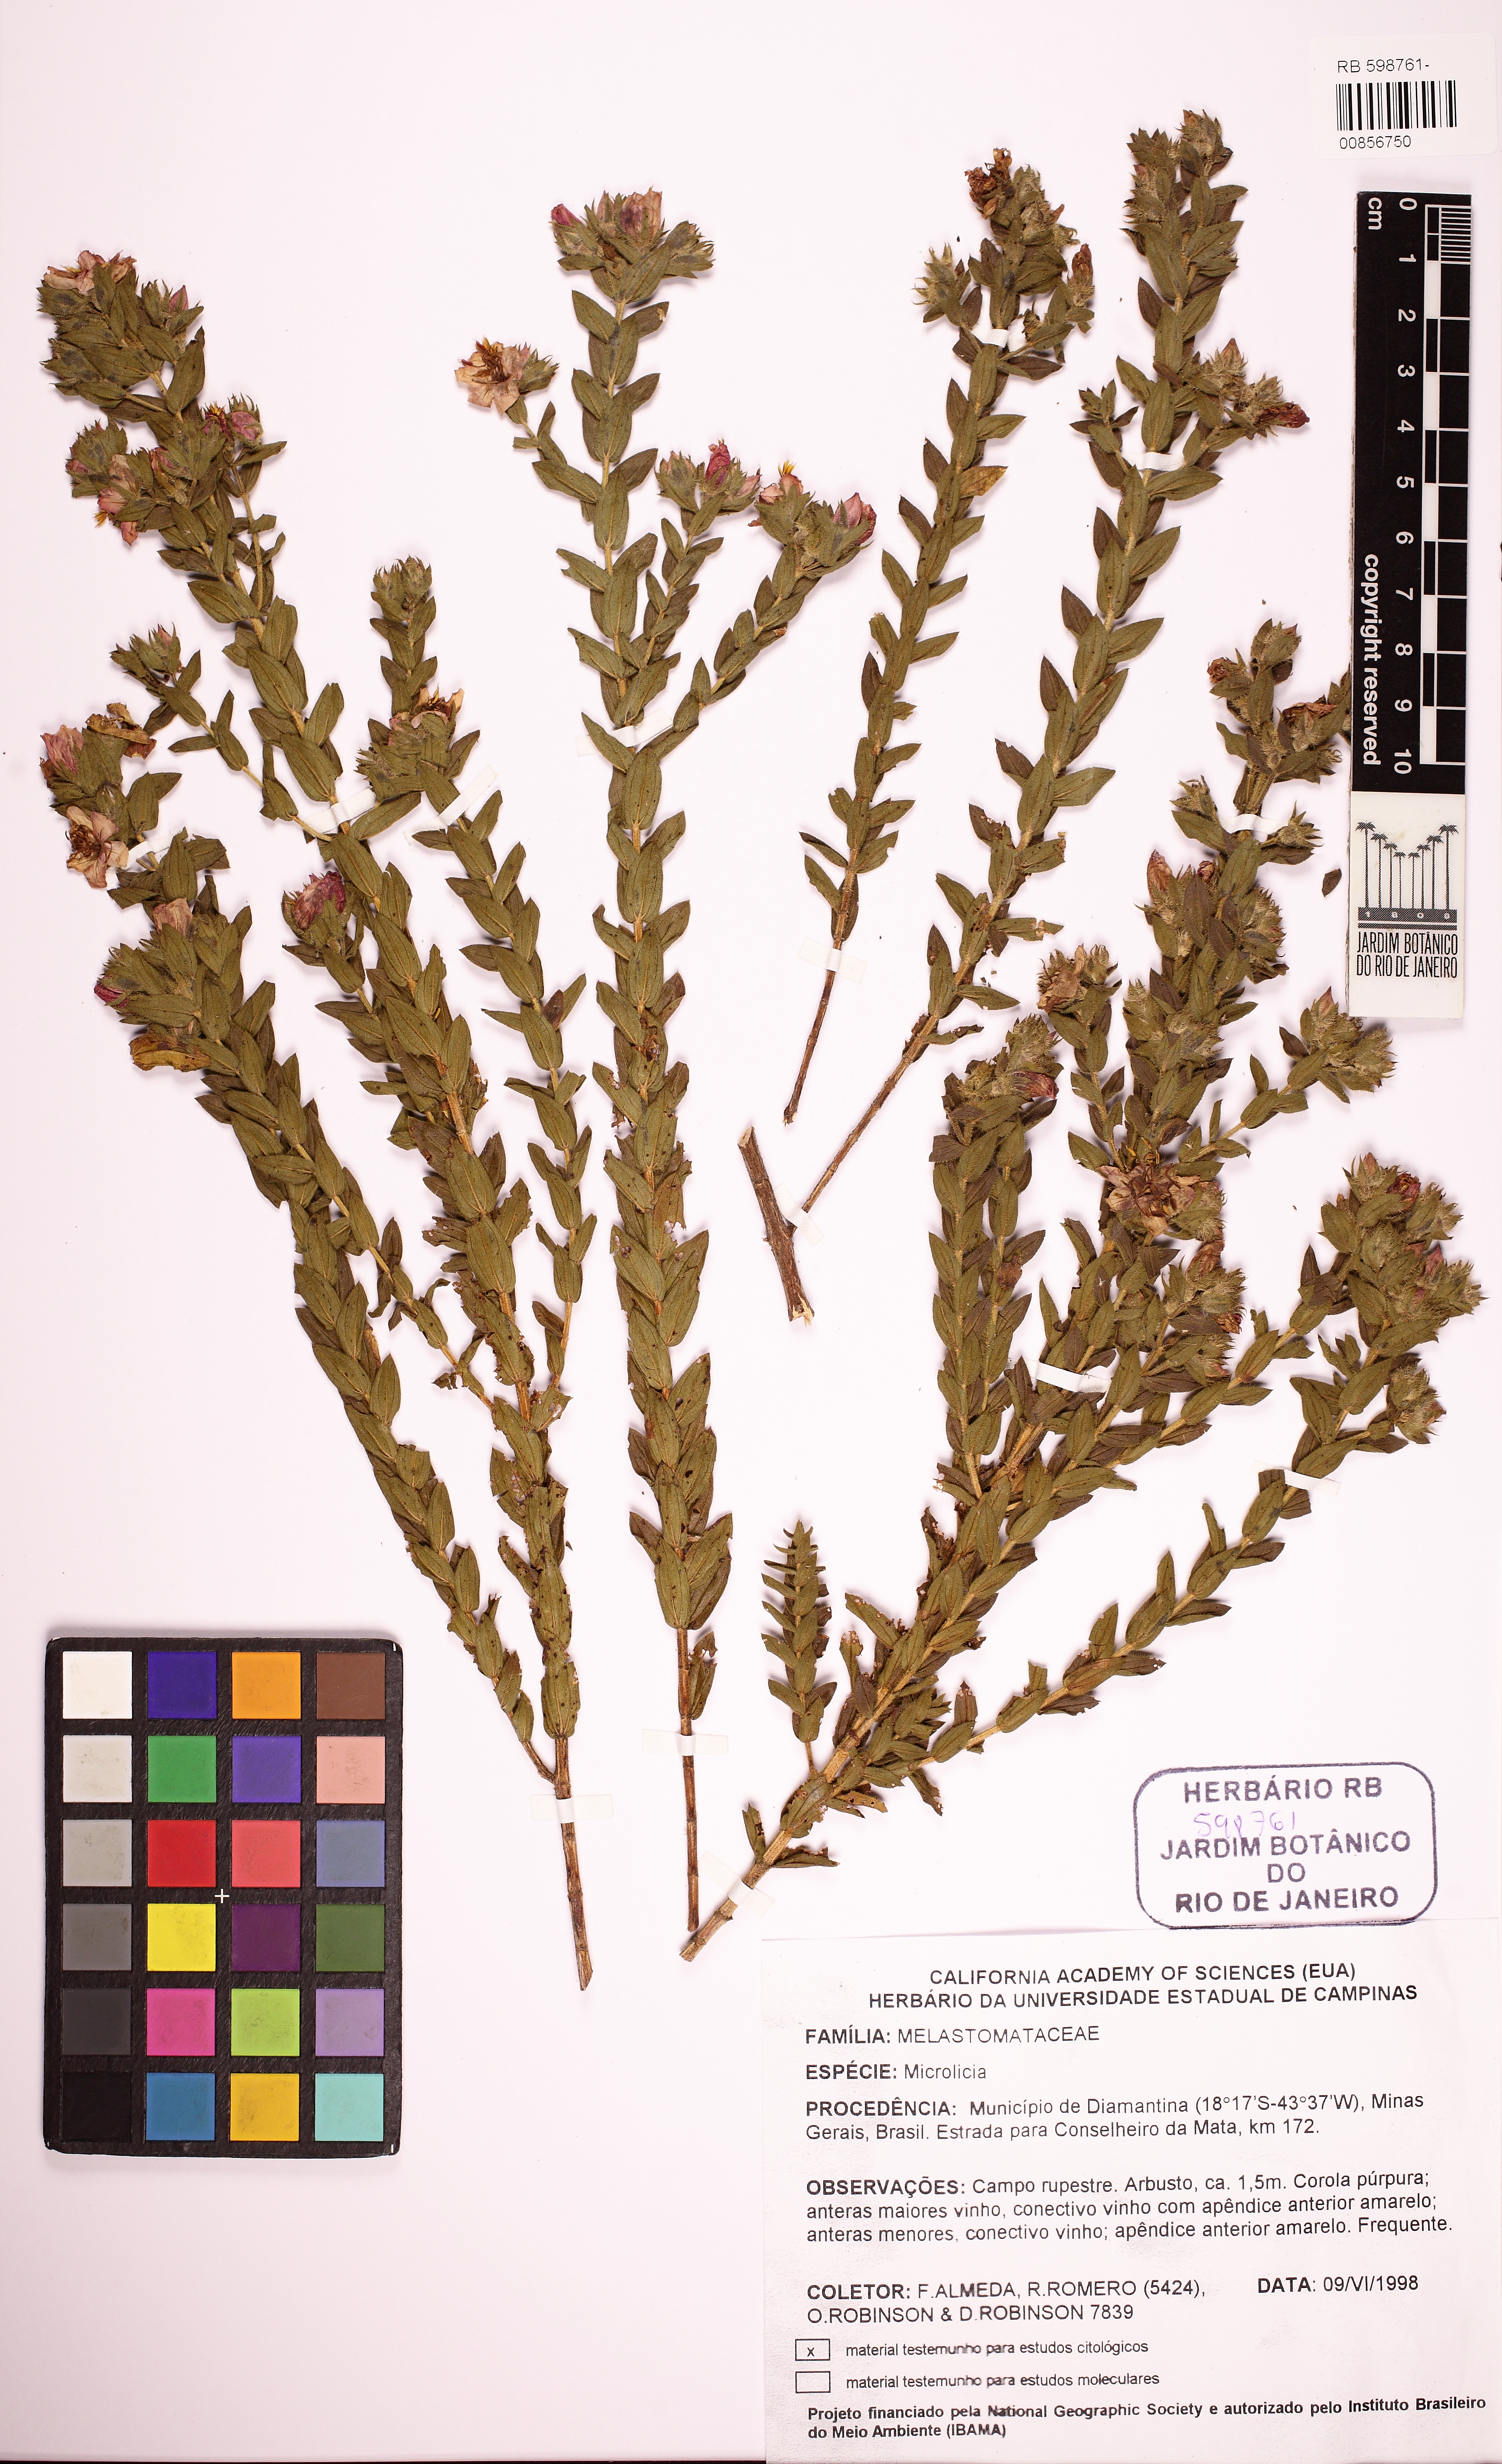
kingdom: Plantae
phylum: Tracheophyta
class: Magnoliopsida
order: Myrtales
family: Melastomataceae
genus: Microlicia
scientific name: Microlicia capitata
